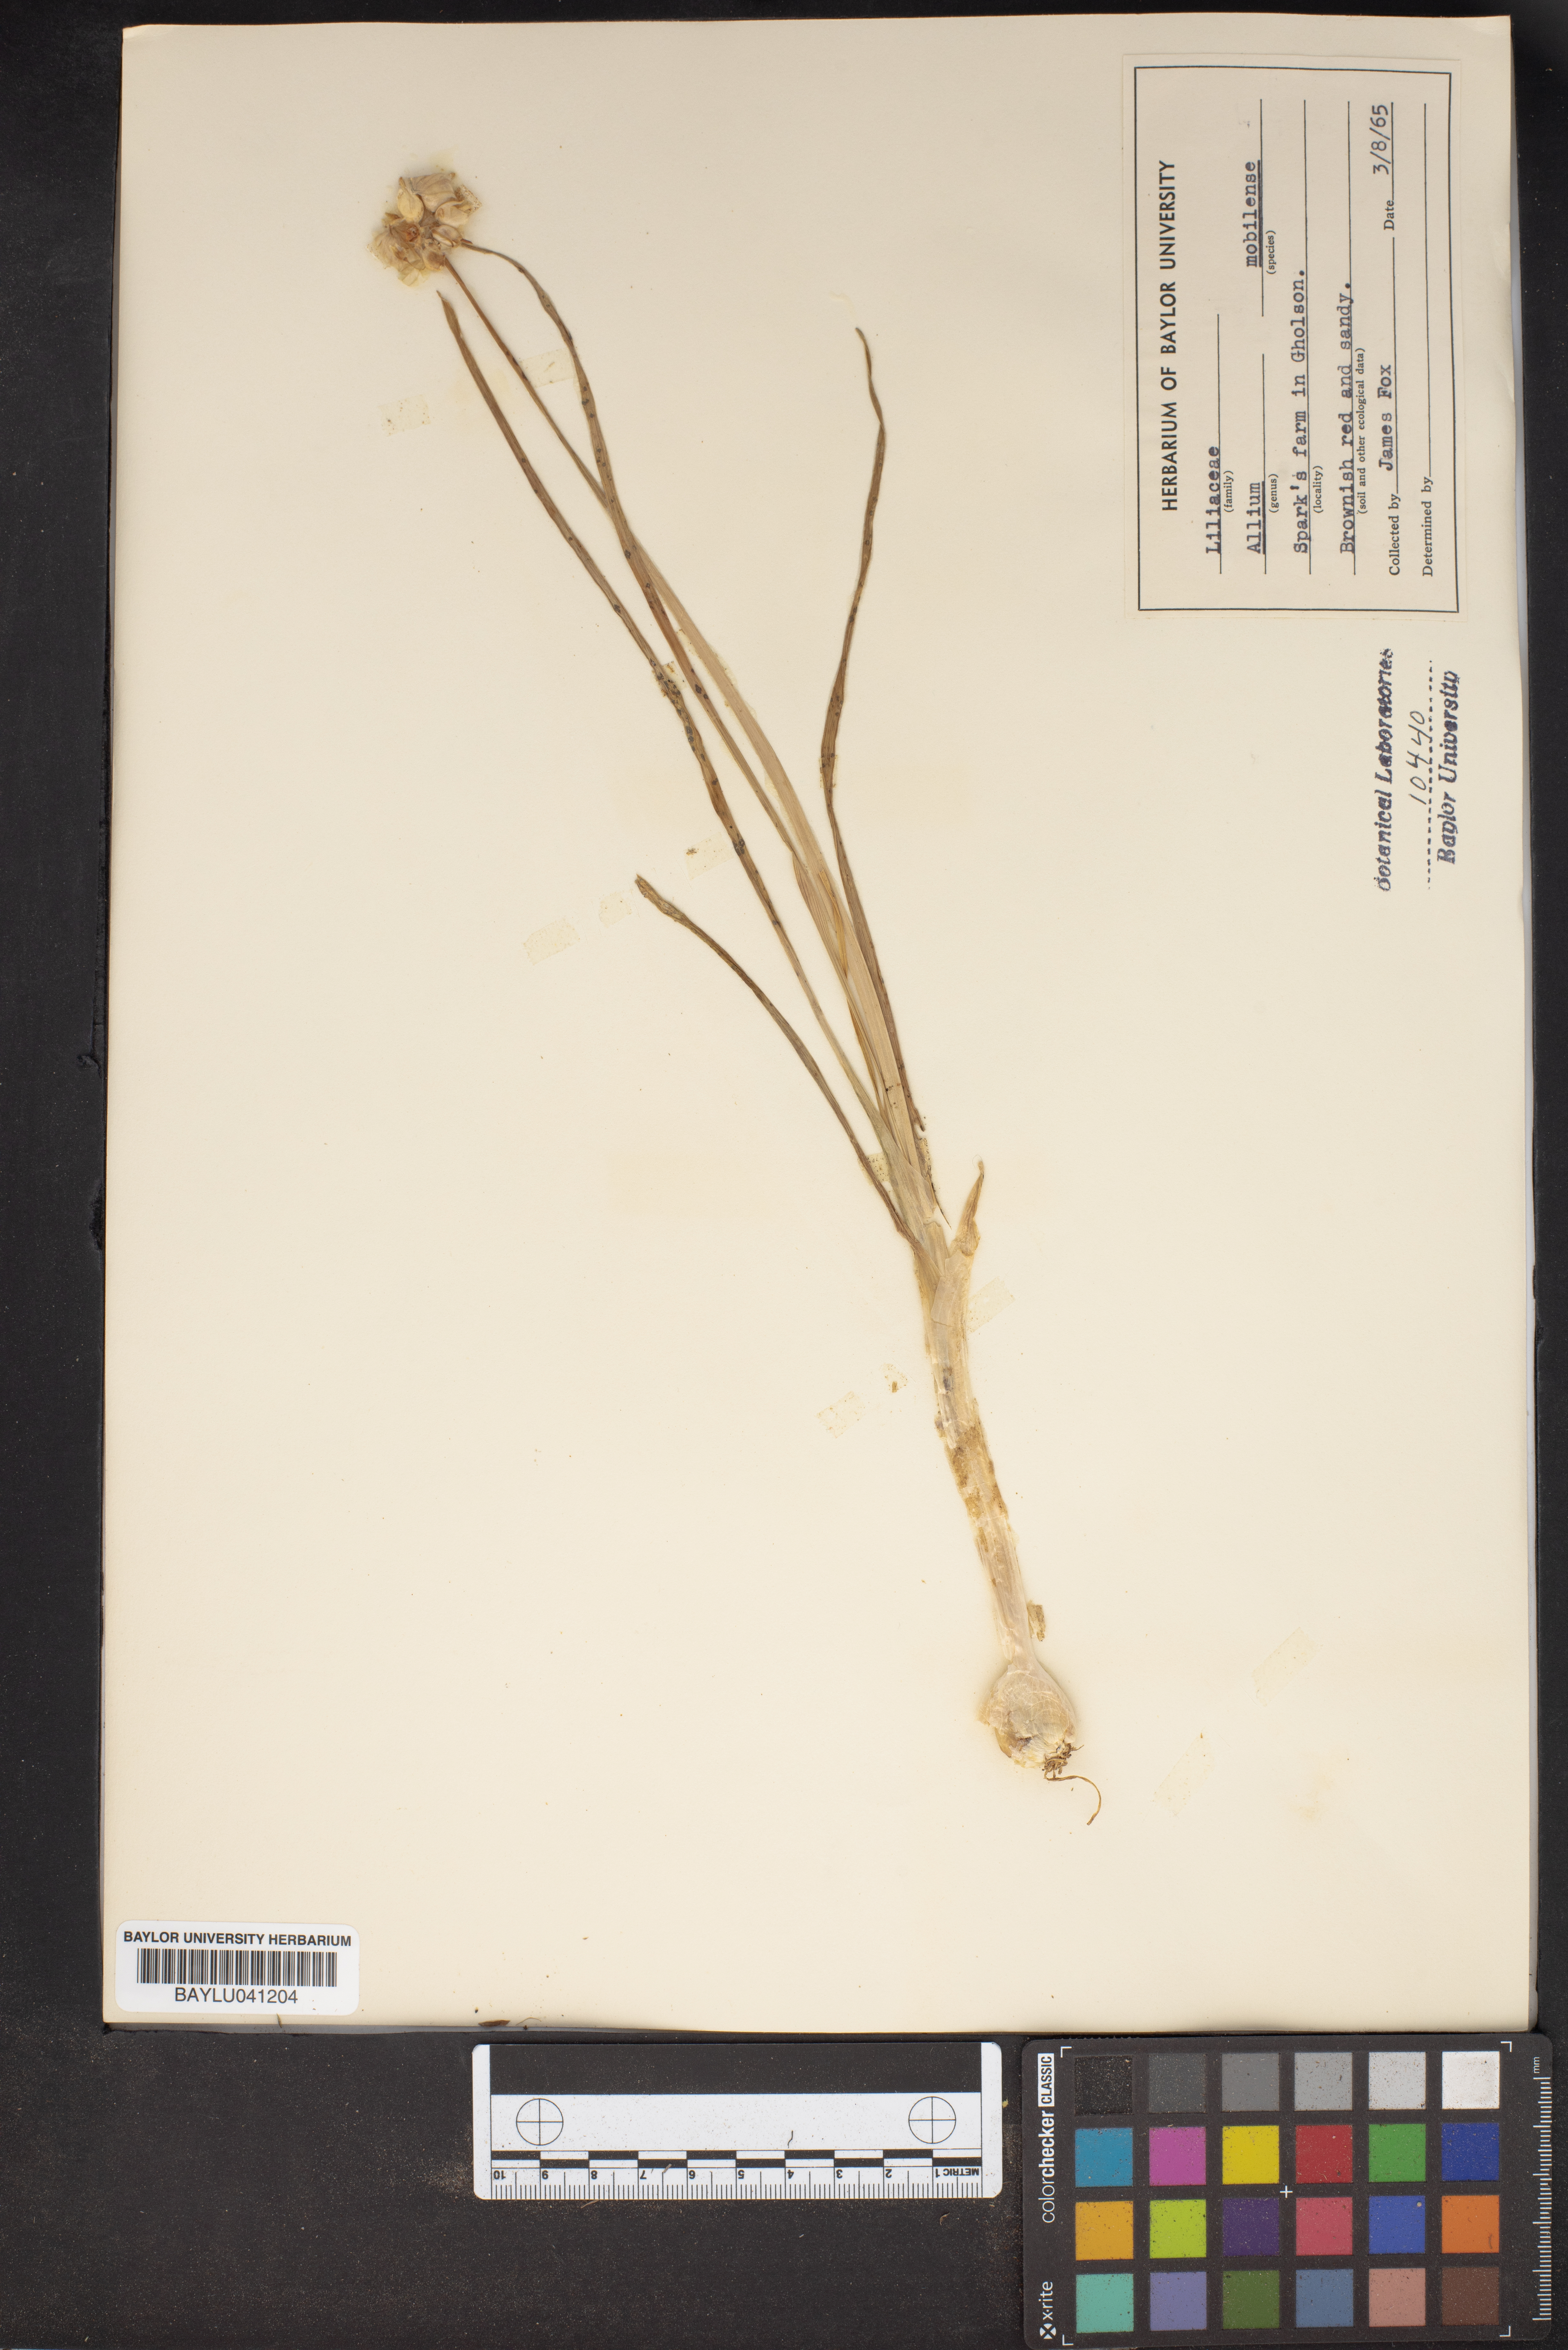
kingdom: Plantae
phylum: Tracheophyta
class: Liliopsida
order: Asparagales
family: Amaryllidaceae
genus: Allium
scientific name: Allium canadense
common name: Meadow garlic
